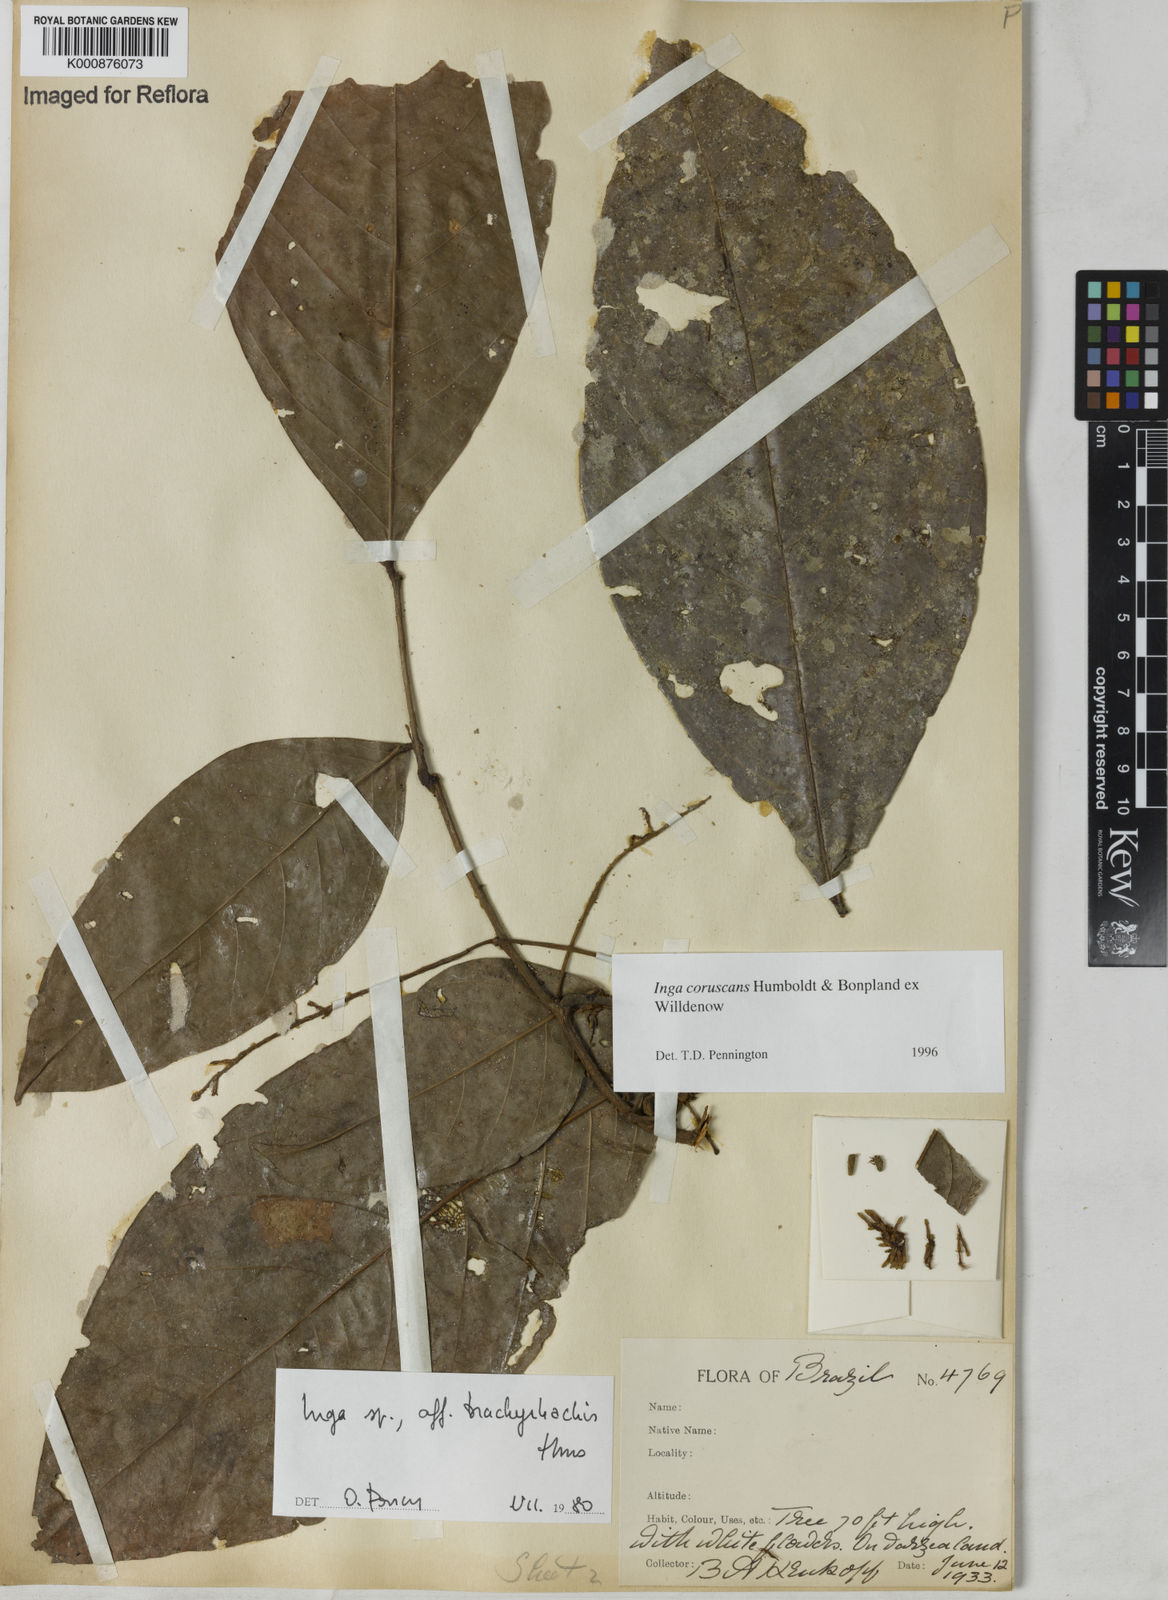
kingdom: Plantae
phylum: Tracheophyta
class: Magnoliopsida
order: Fabales
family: Fabaceae
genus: Inga
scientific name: Inga coruscans
